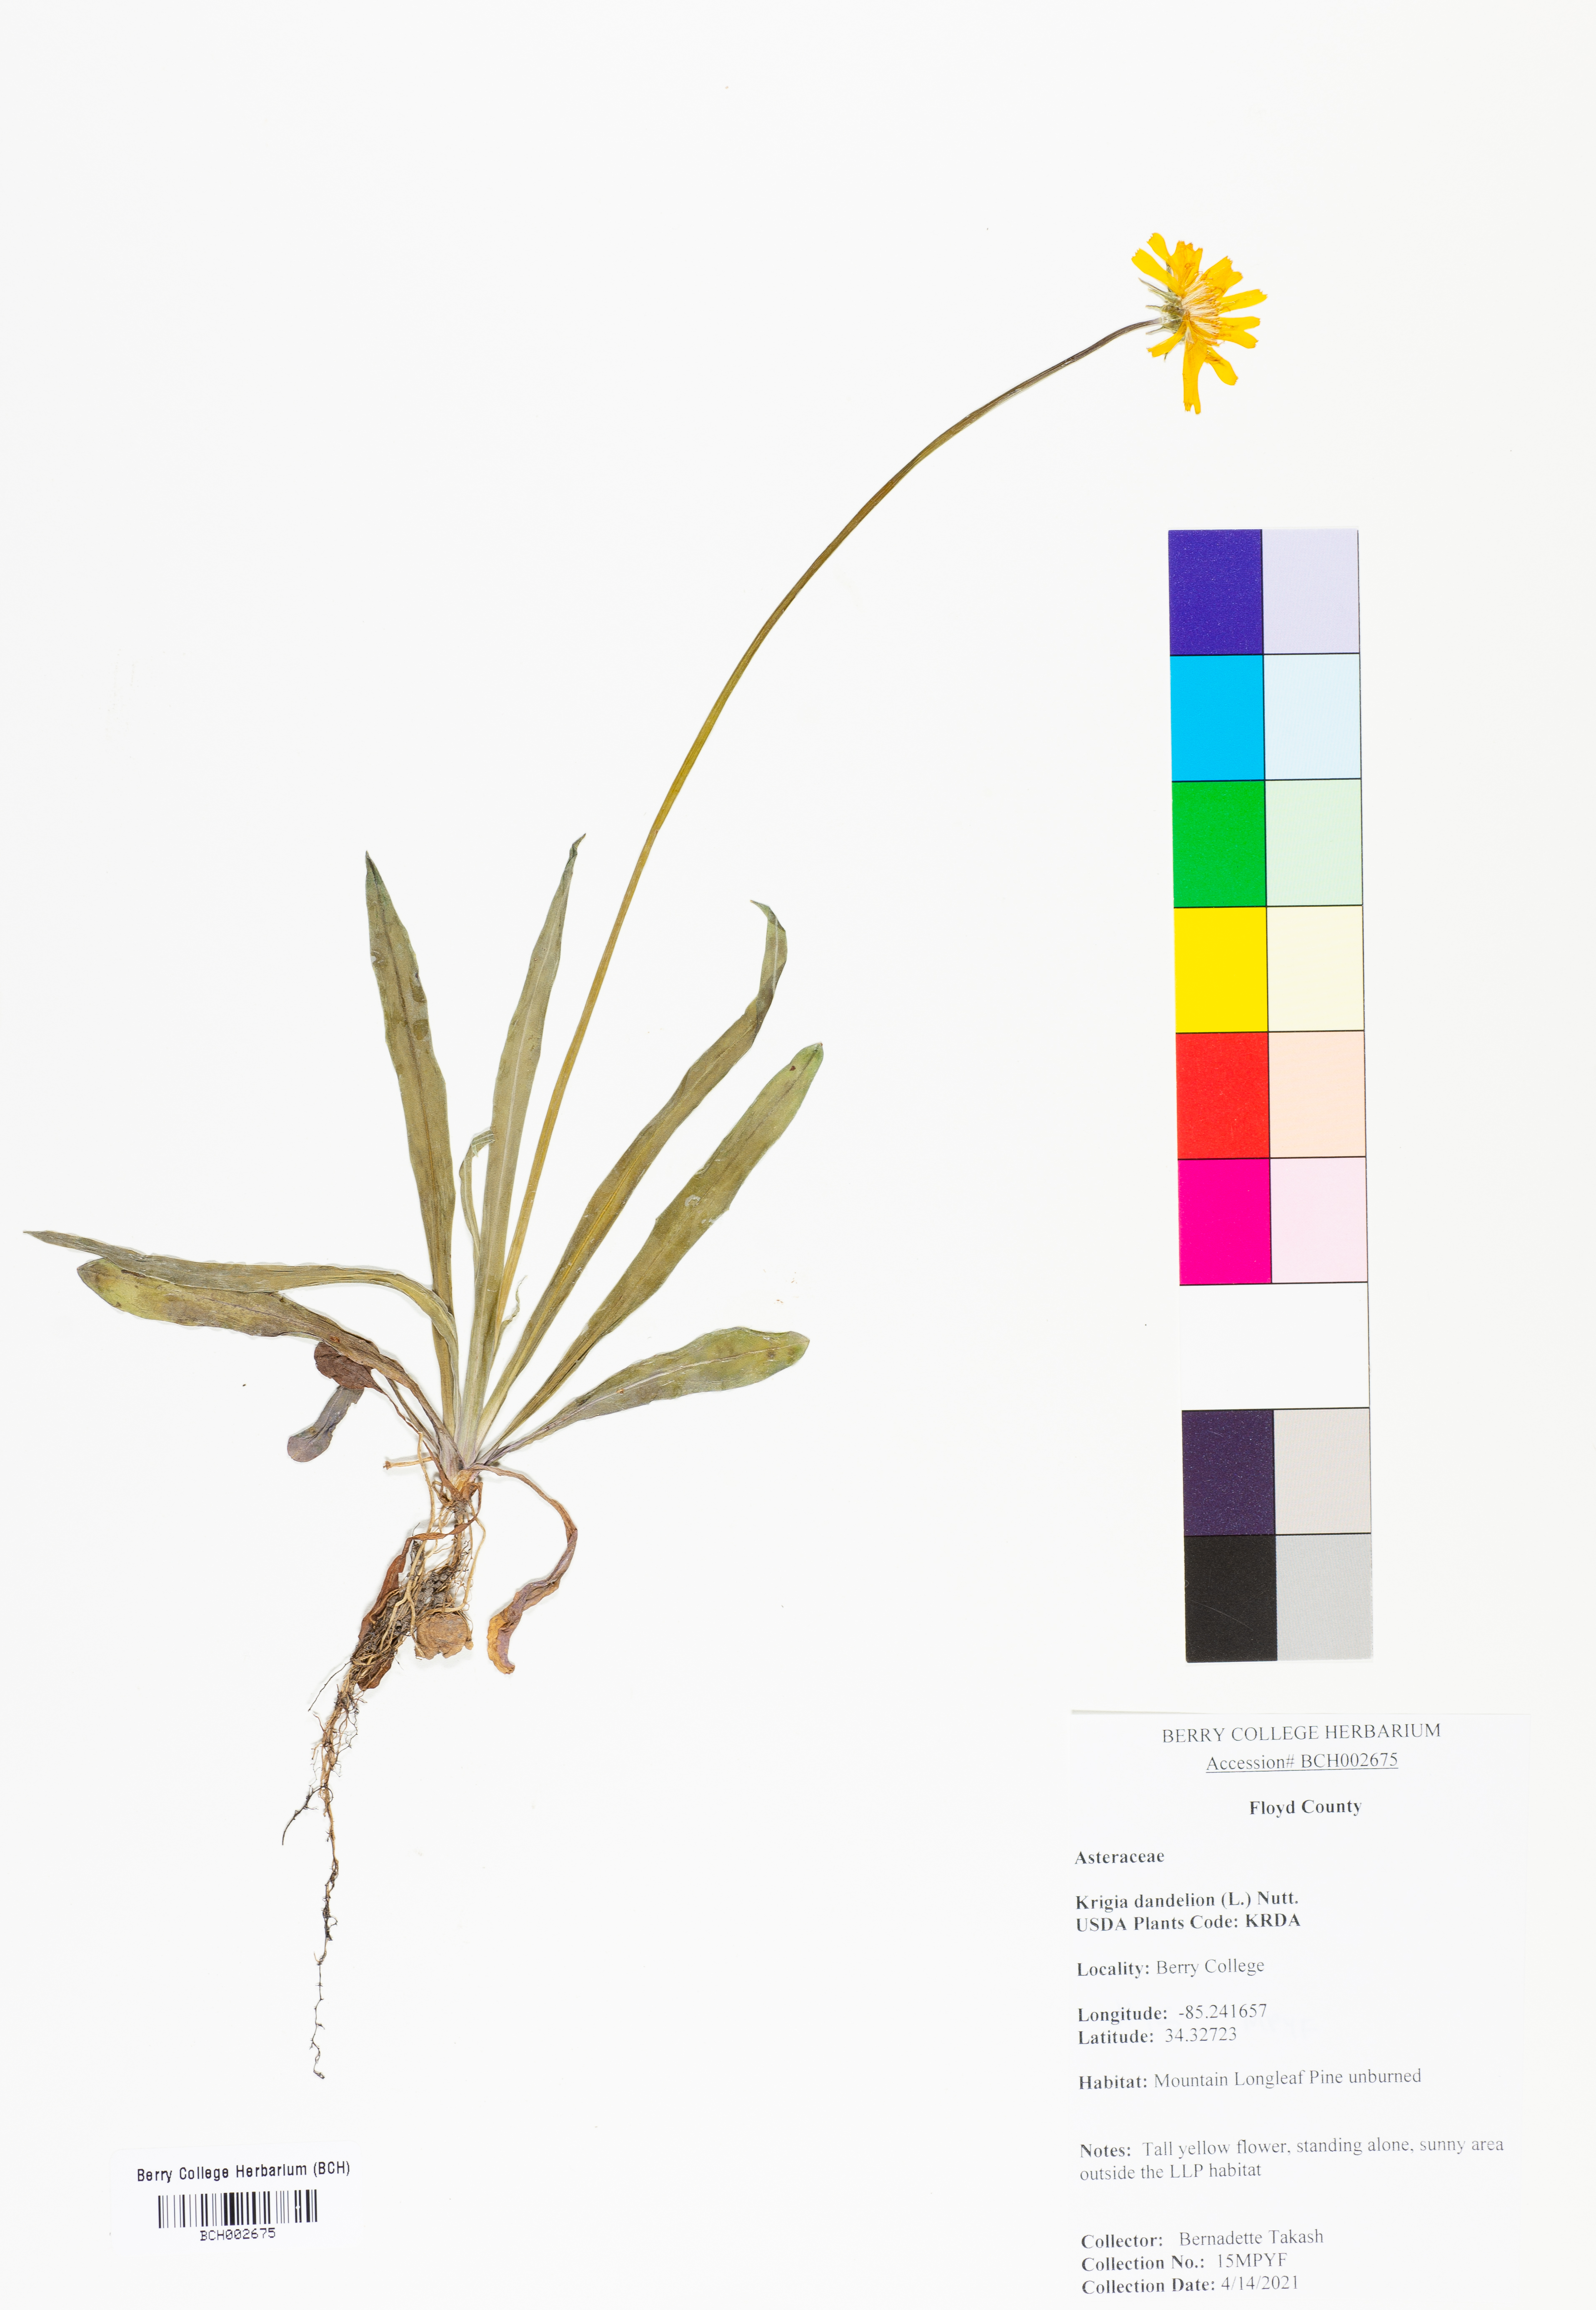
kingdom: Plantae
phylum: Tracheophyta
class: Magnoliopsida
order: Asterales
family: Asteraceae
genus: Krigia
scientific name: Krigia dandelion
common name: Colonial dwarf-dandelion
